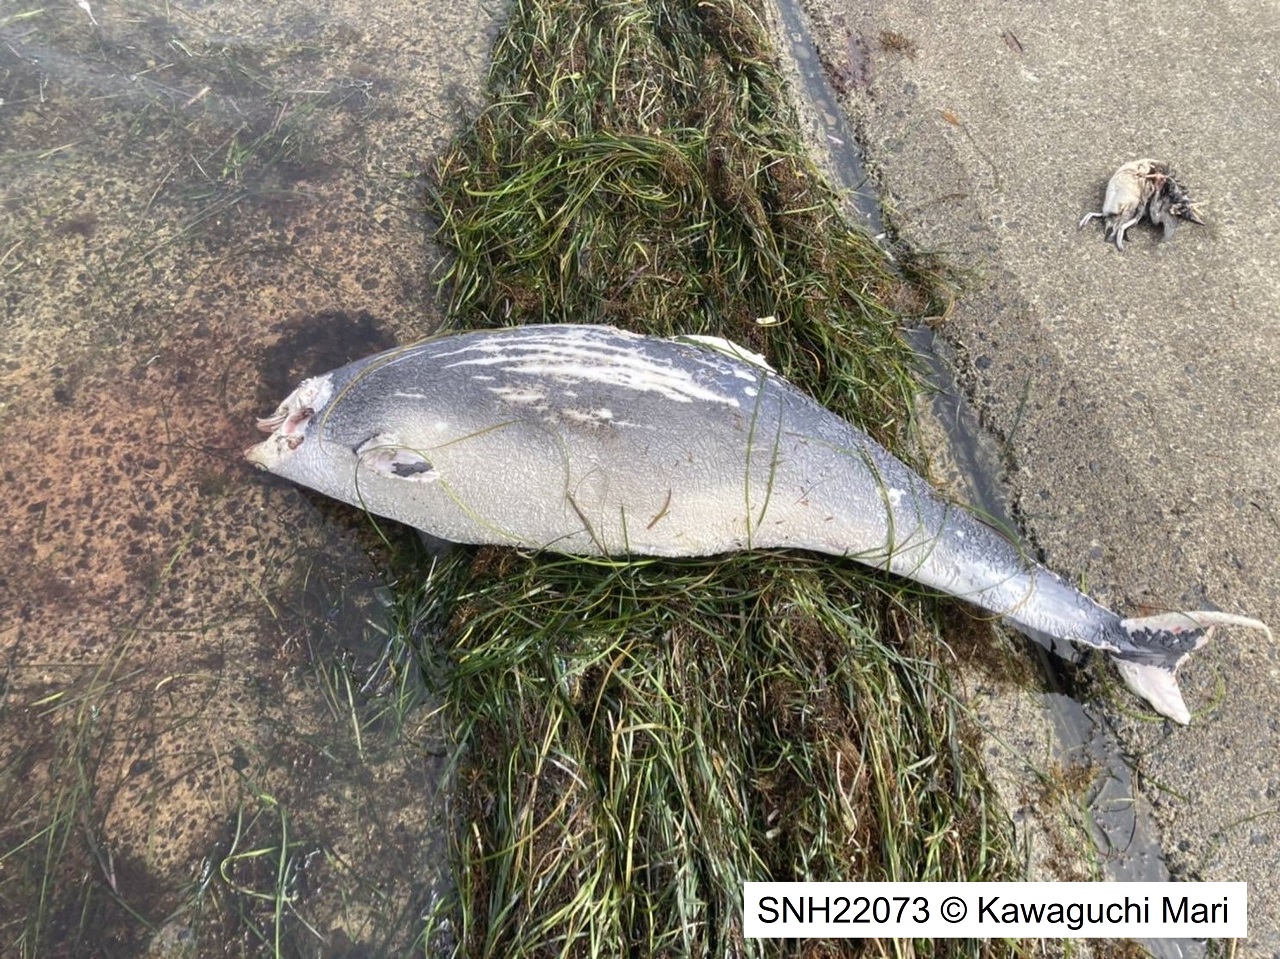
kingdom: Animalia
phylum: Chordata
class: Mammalia
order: Cetacea
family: Phocoenidae
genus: Phocoena
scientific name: Phocoena phocoena
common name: Harbour porpoise
